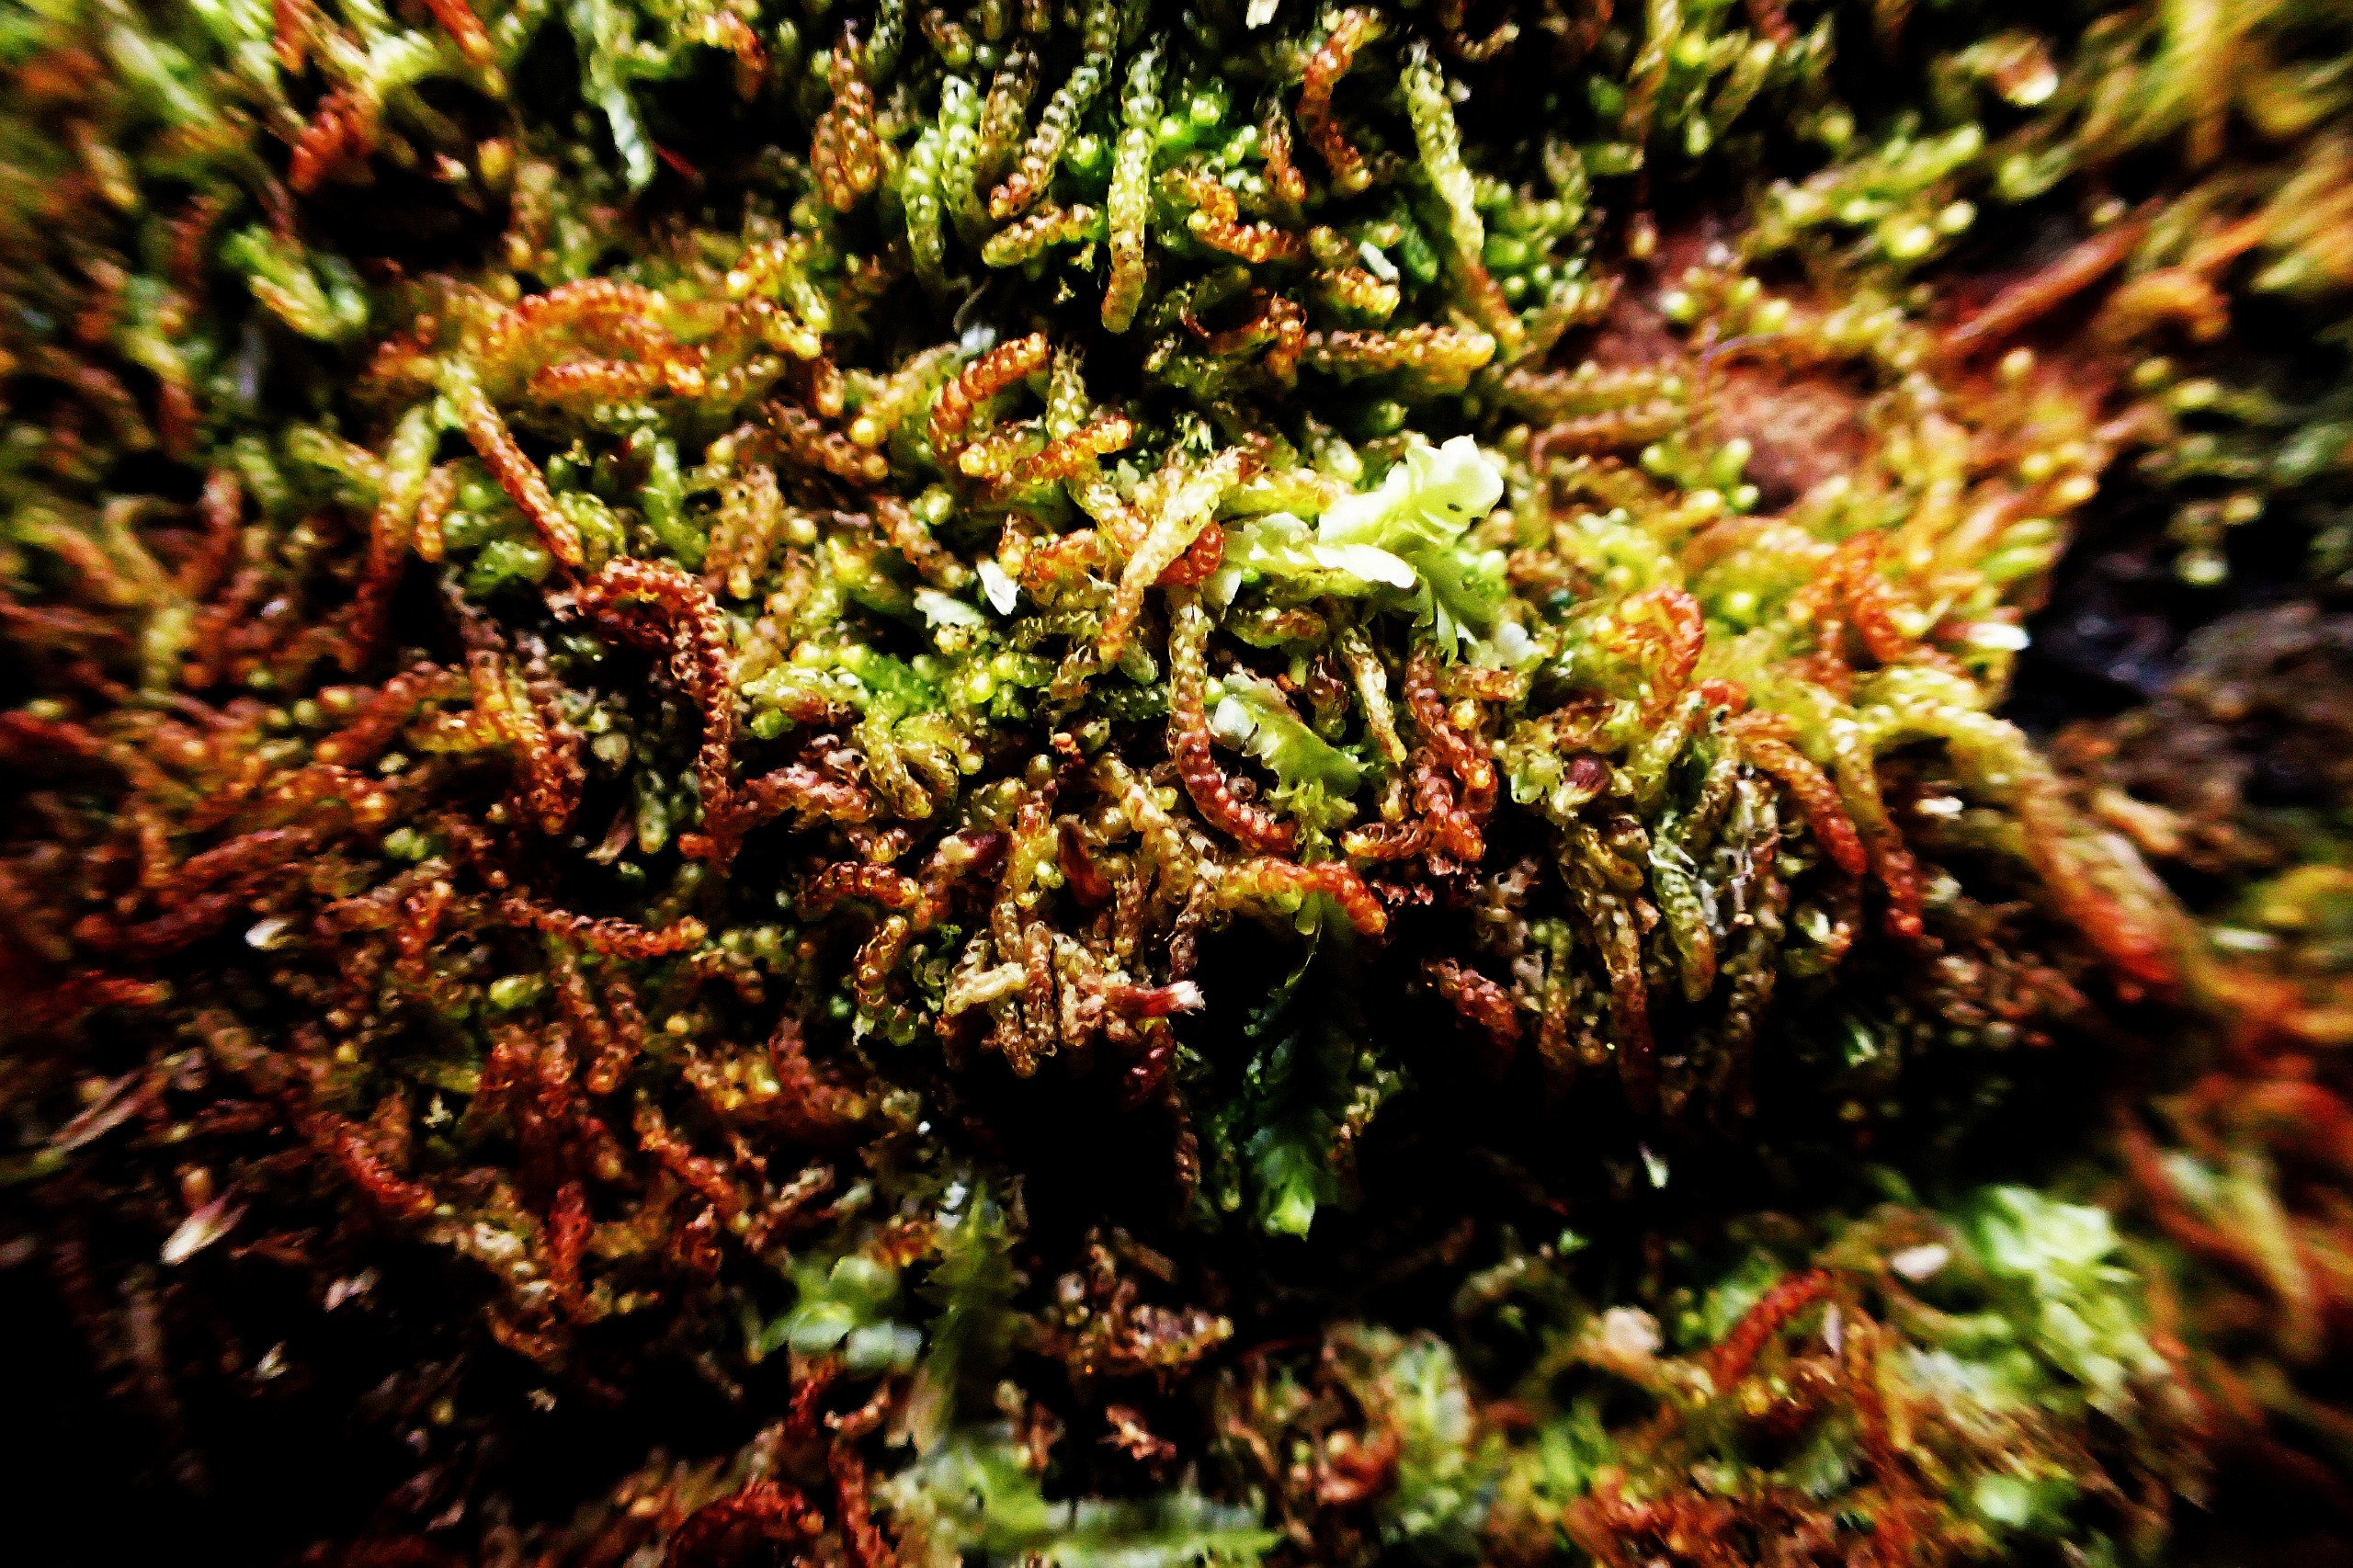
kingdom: Plantae
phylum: Marchantiophyta
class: Jungermanniopsida
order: Jungermanniales
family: Cephaloziaceae
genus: Nowellia
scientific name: Nowellia curvifolia
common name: Krumbladet stødmos
